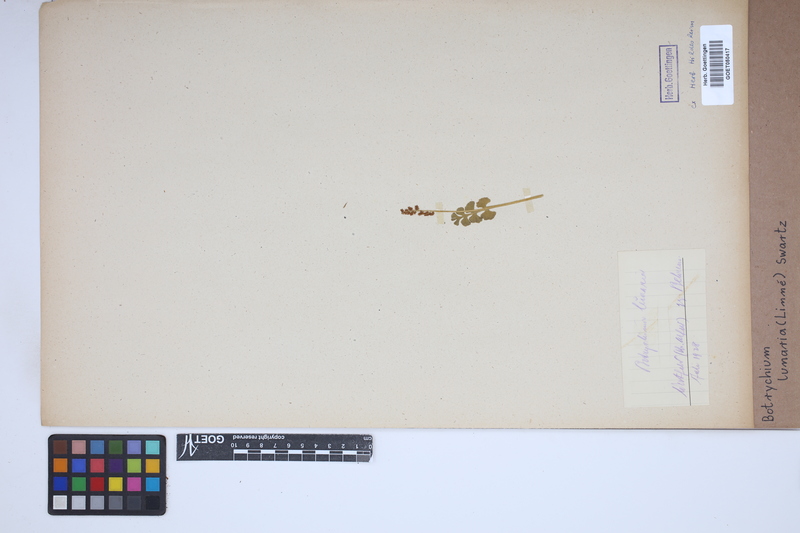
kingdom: Plantae
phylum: Tracheophyta
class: Polypodiopsida
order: Ophioglossales
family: Ophioglossaceae
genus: Botrychium
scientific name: Botrychium lunaria
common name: Moonwort
